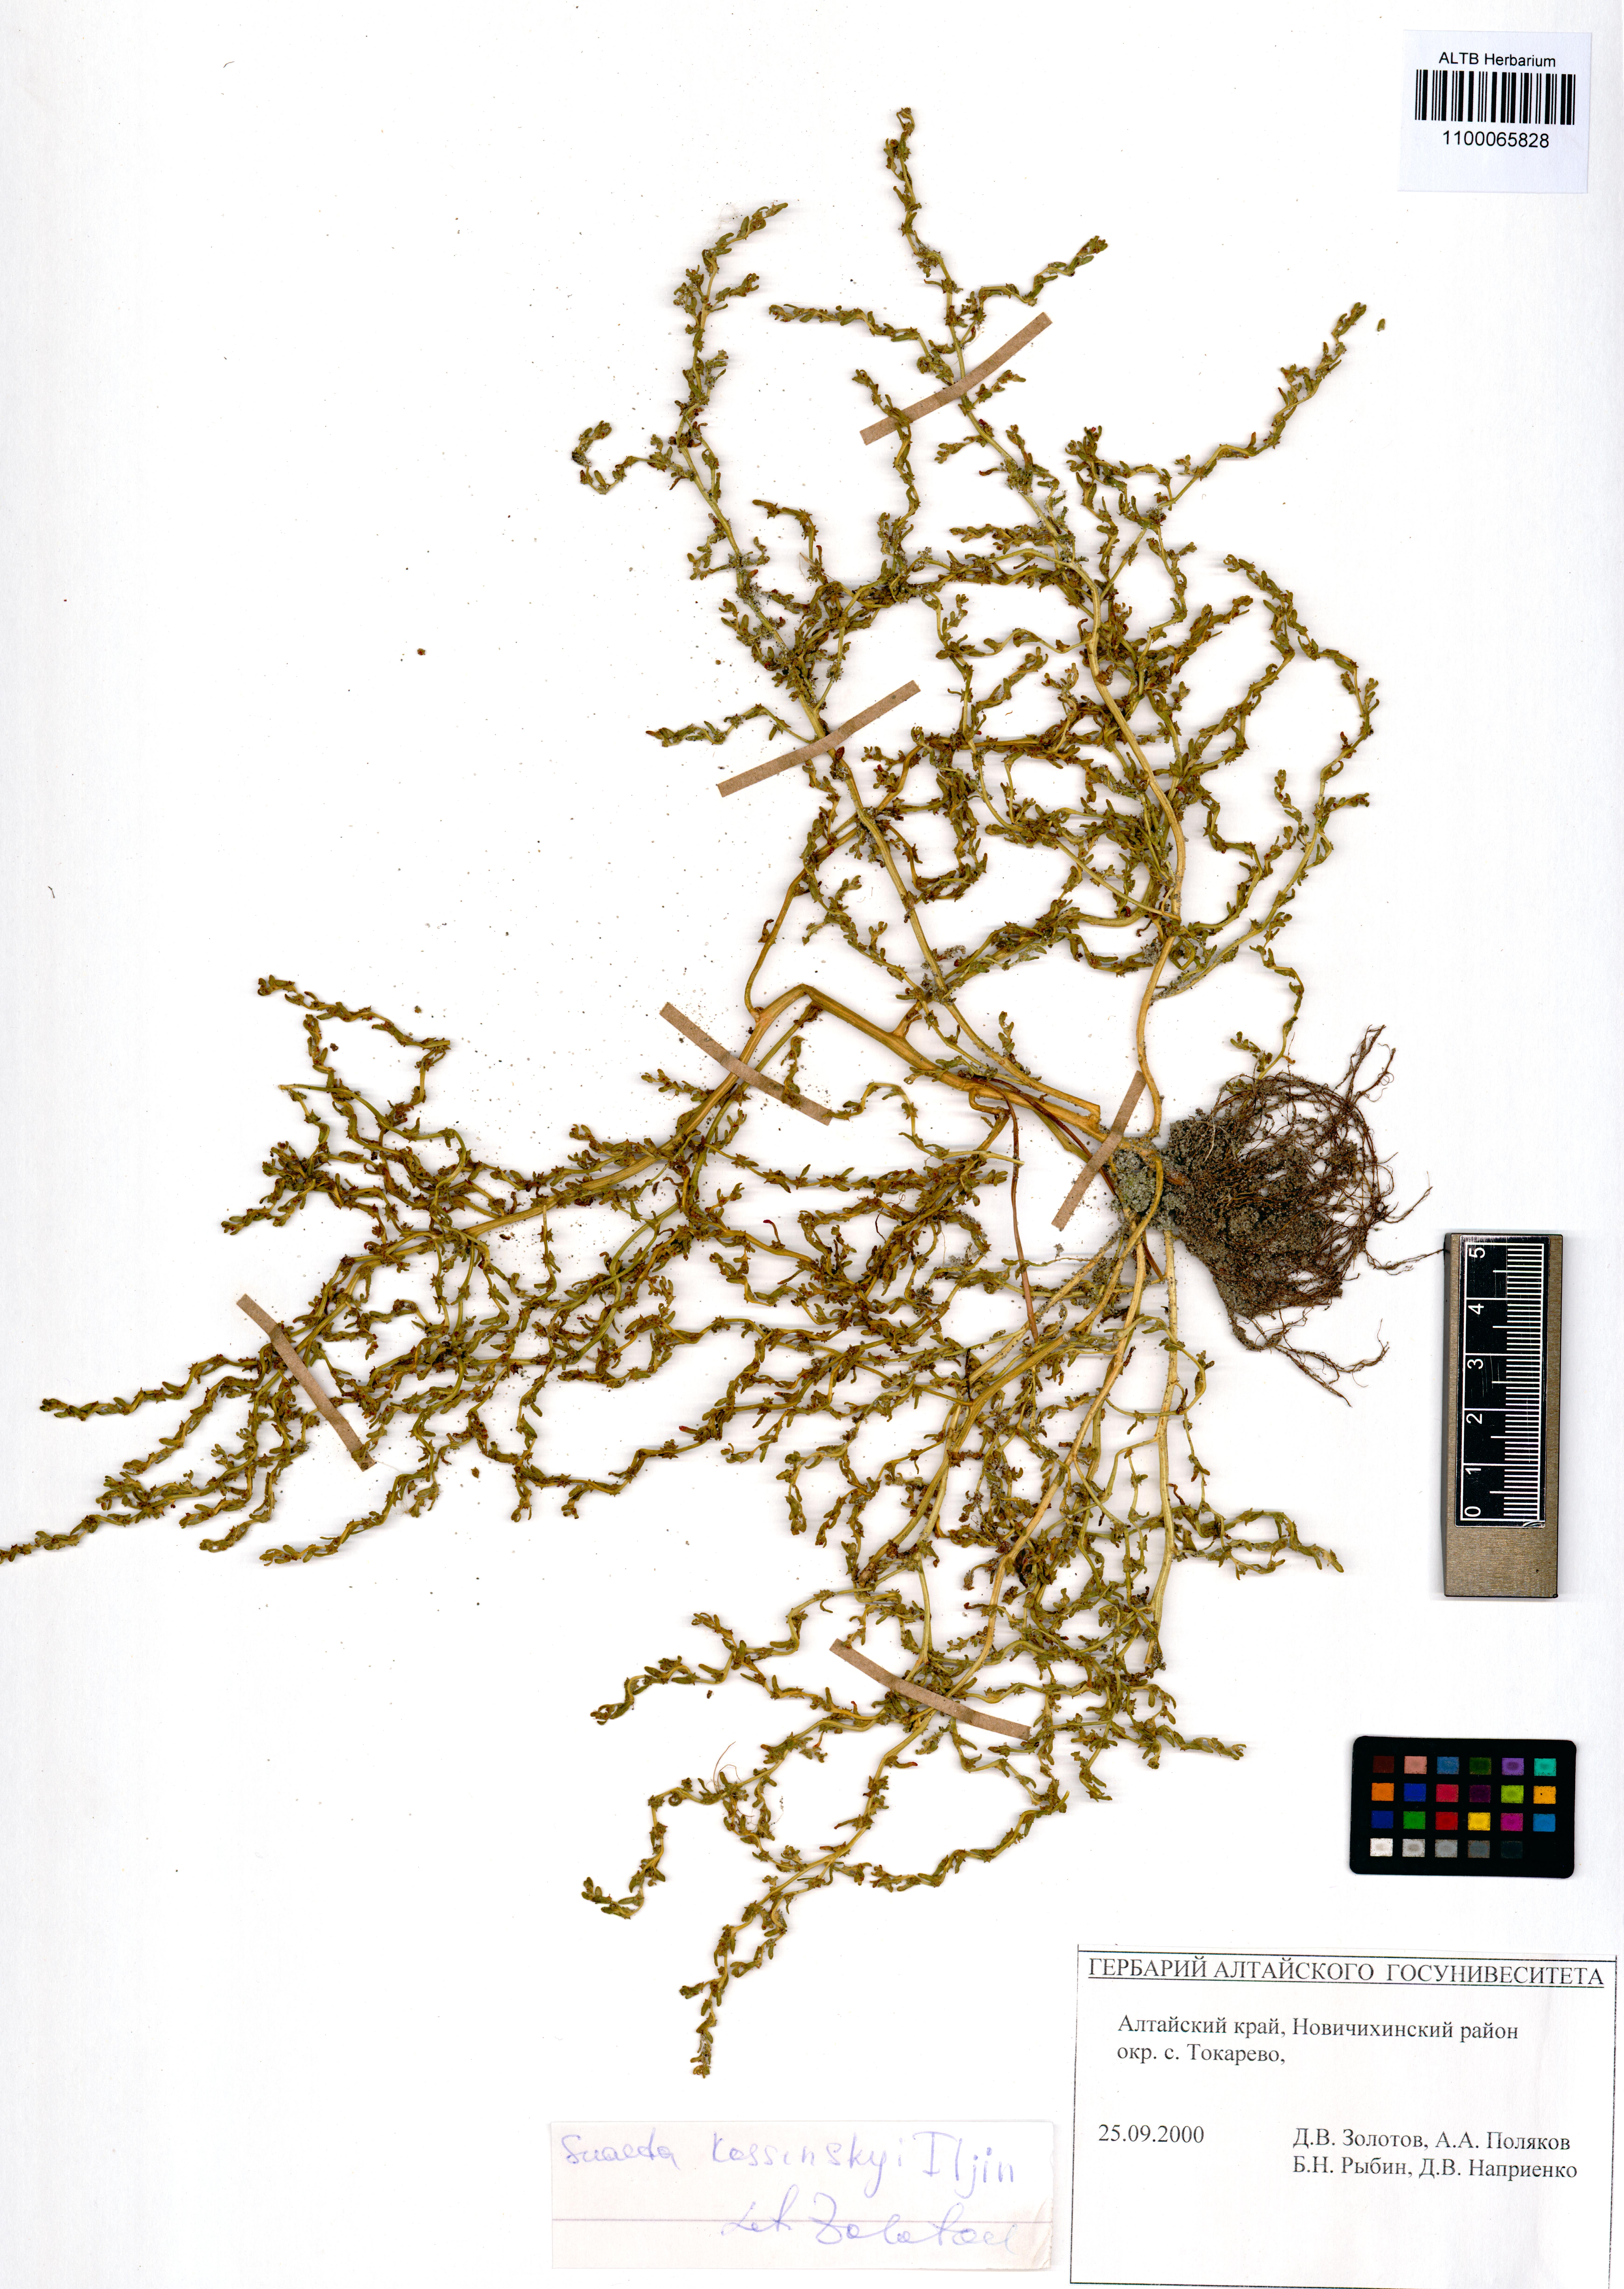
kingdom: Plantae
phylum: Tracheophyta
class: Magnoliopsida
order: Caryophyllales
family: Amaranthaceae
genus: Suaeda
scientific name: Suaeda kossinskyi
